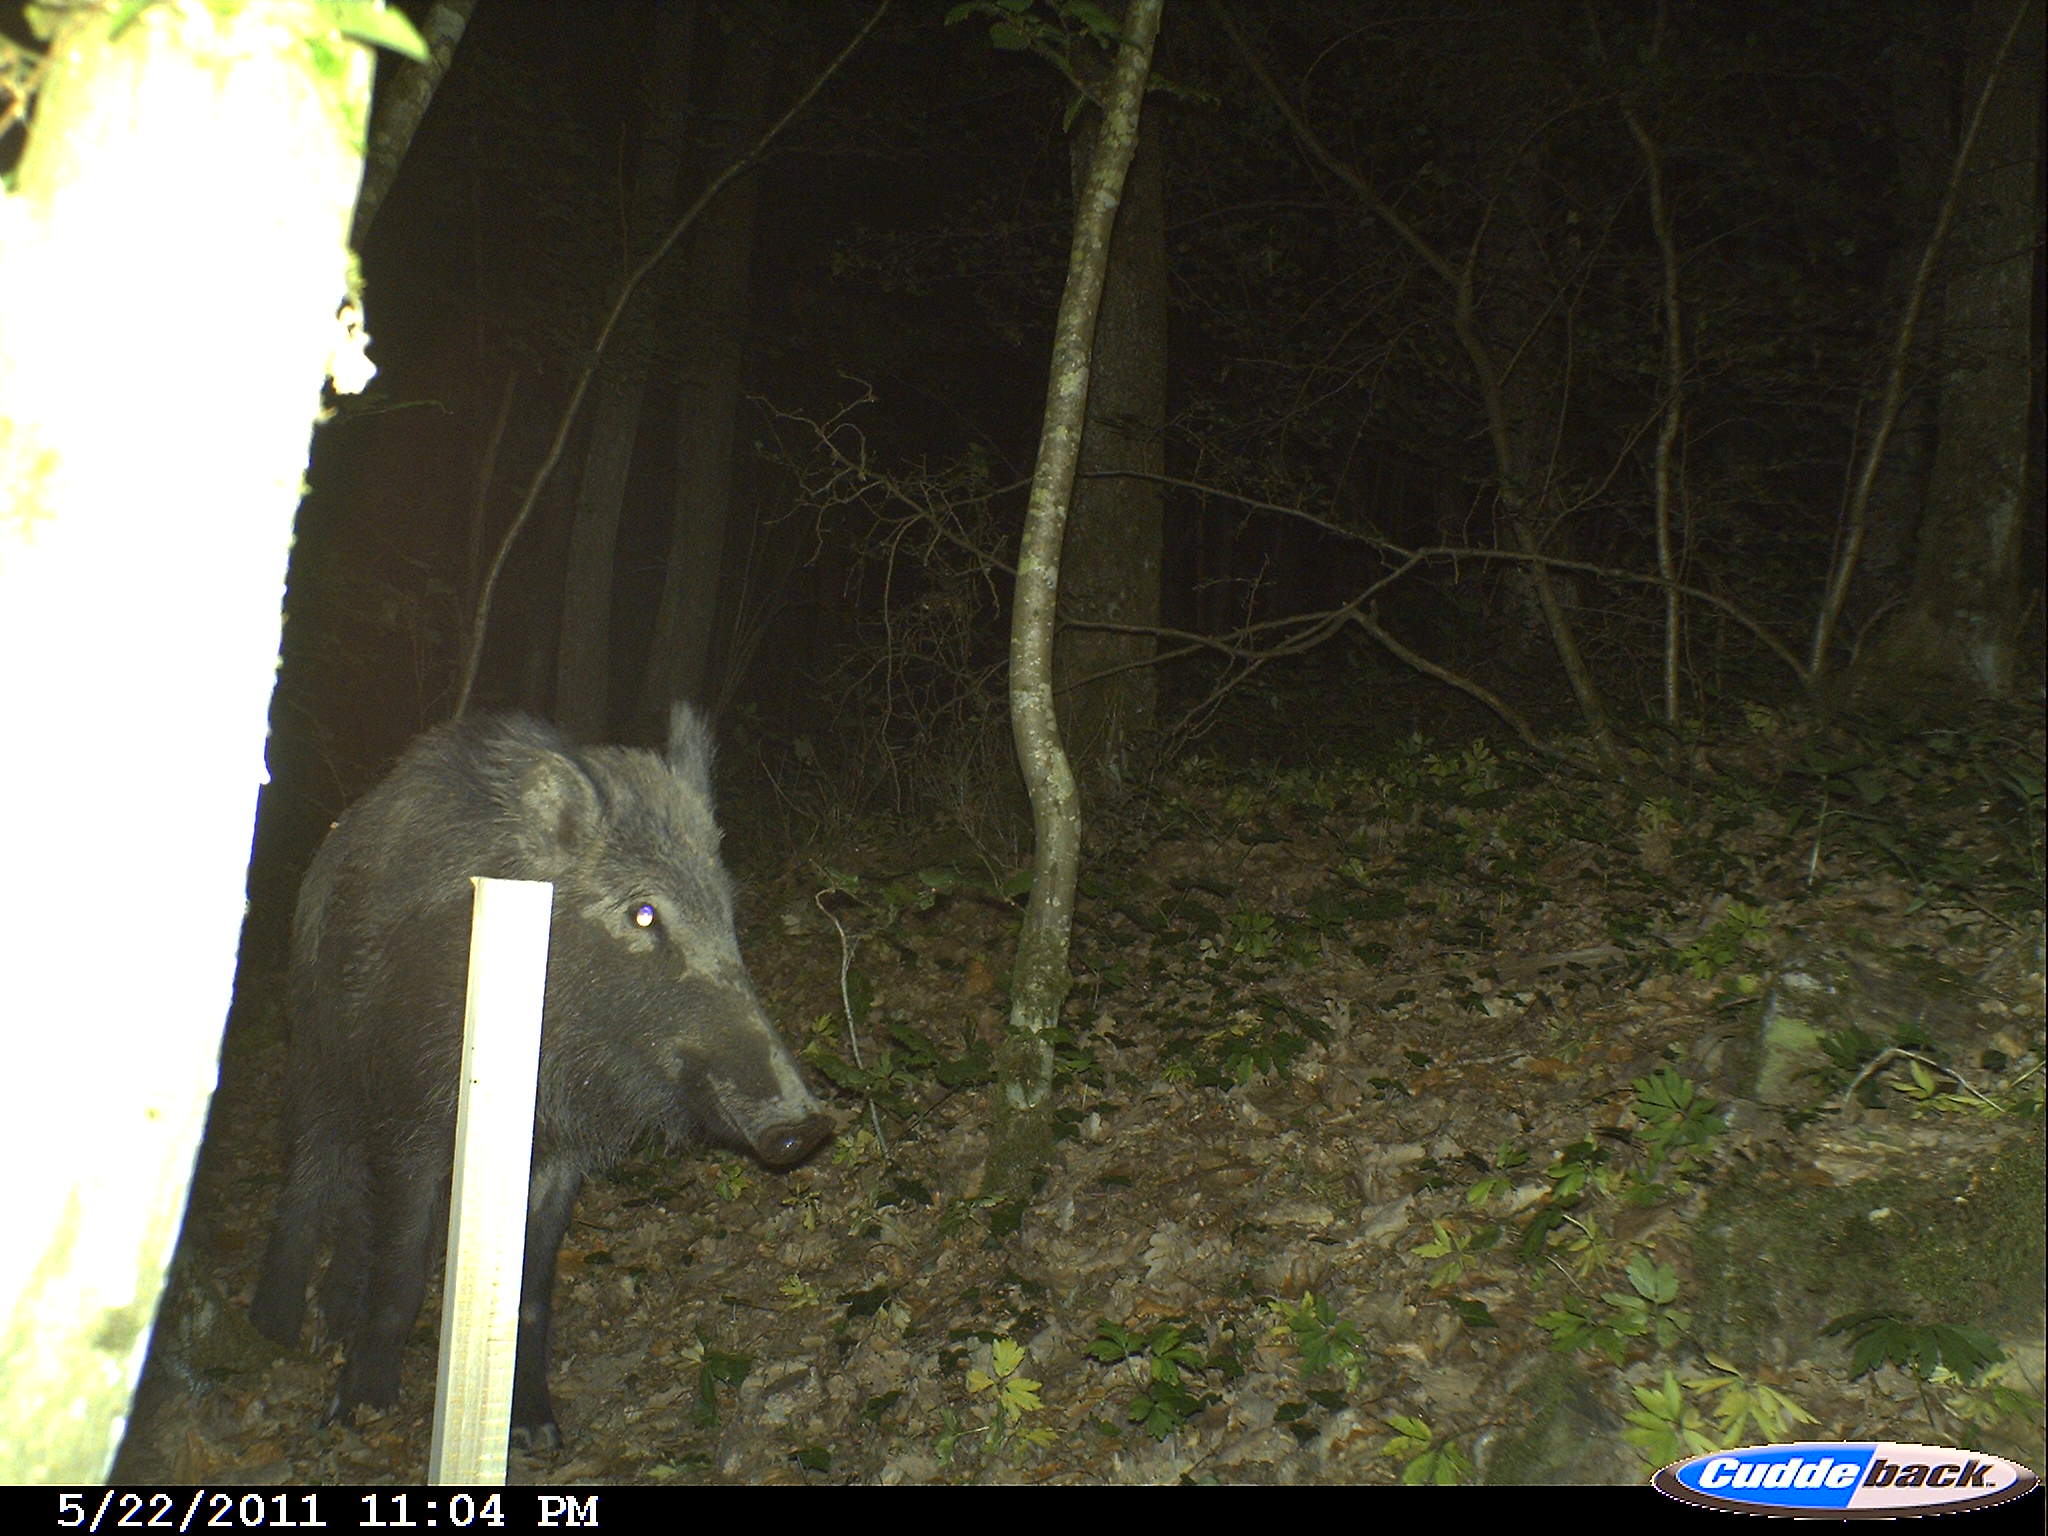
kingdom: Animalia
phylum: Chordata
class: Mammalia
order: Artiodactyla
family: Suidae
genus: Sus
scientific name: Sus scrofa
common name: Wild boar
